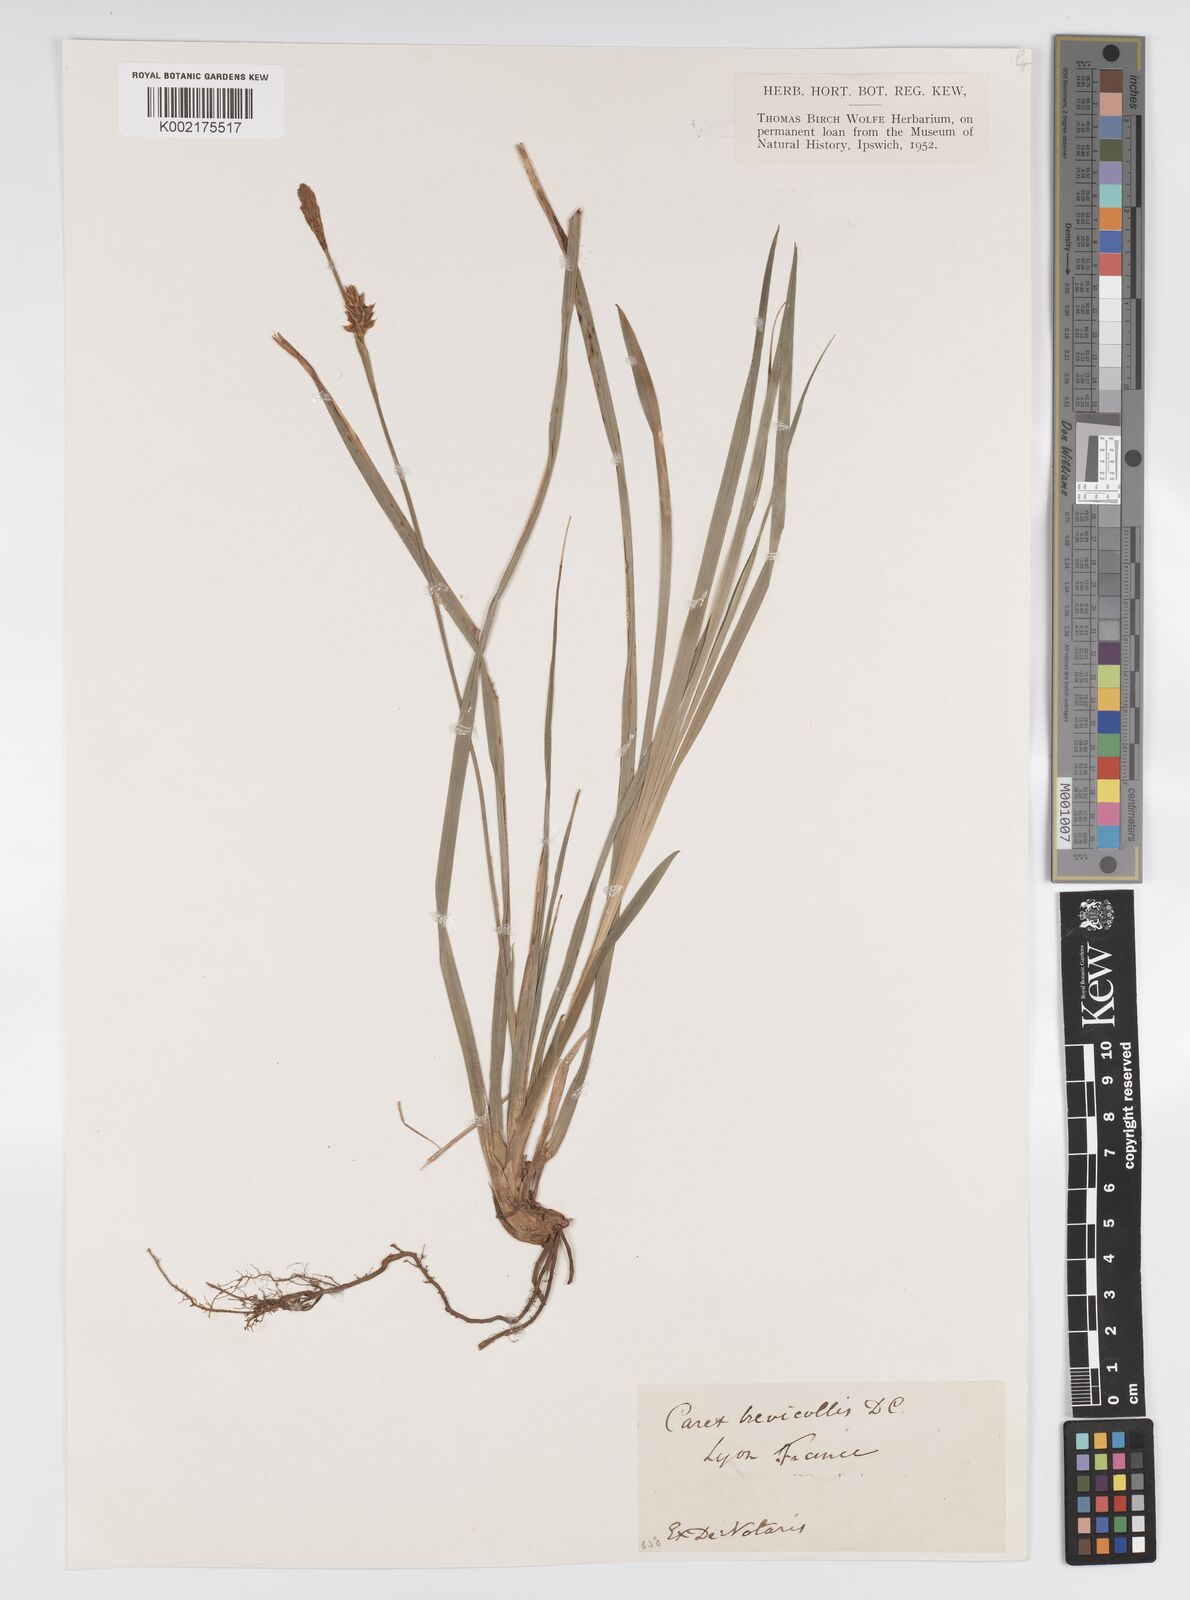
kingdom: Plantae
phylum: Tracheophyta
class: Liliopsida
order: Poales
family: Cyperaceae
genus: Carex
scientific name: Carex brevicollis
